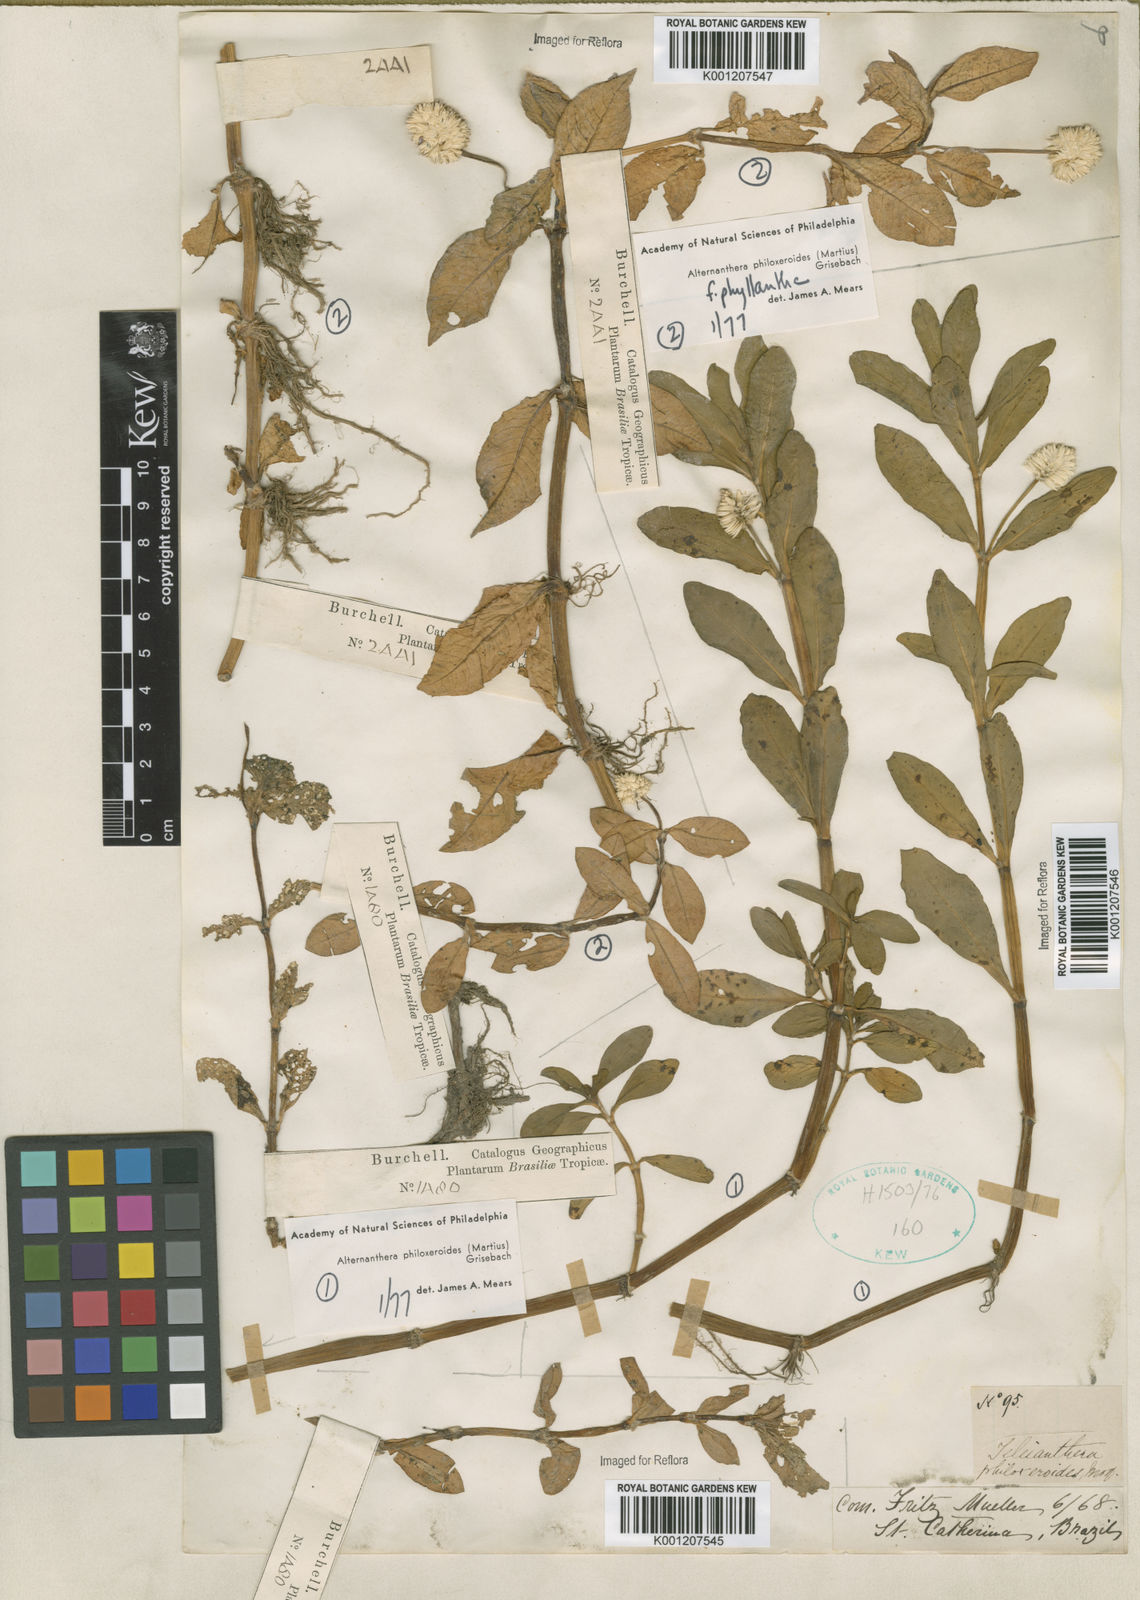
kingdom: Plantae
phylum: Tracheophyta
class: Magnoliopsida
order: Caryophyllales
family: Amaranthaceae
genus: Alternanthera
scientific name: Alternanthera philoxeroides
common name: Alligatorweed
